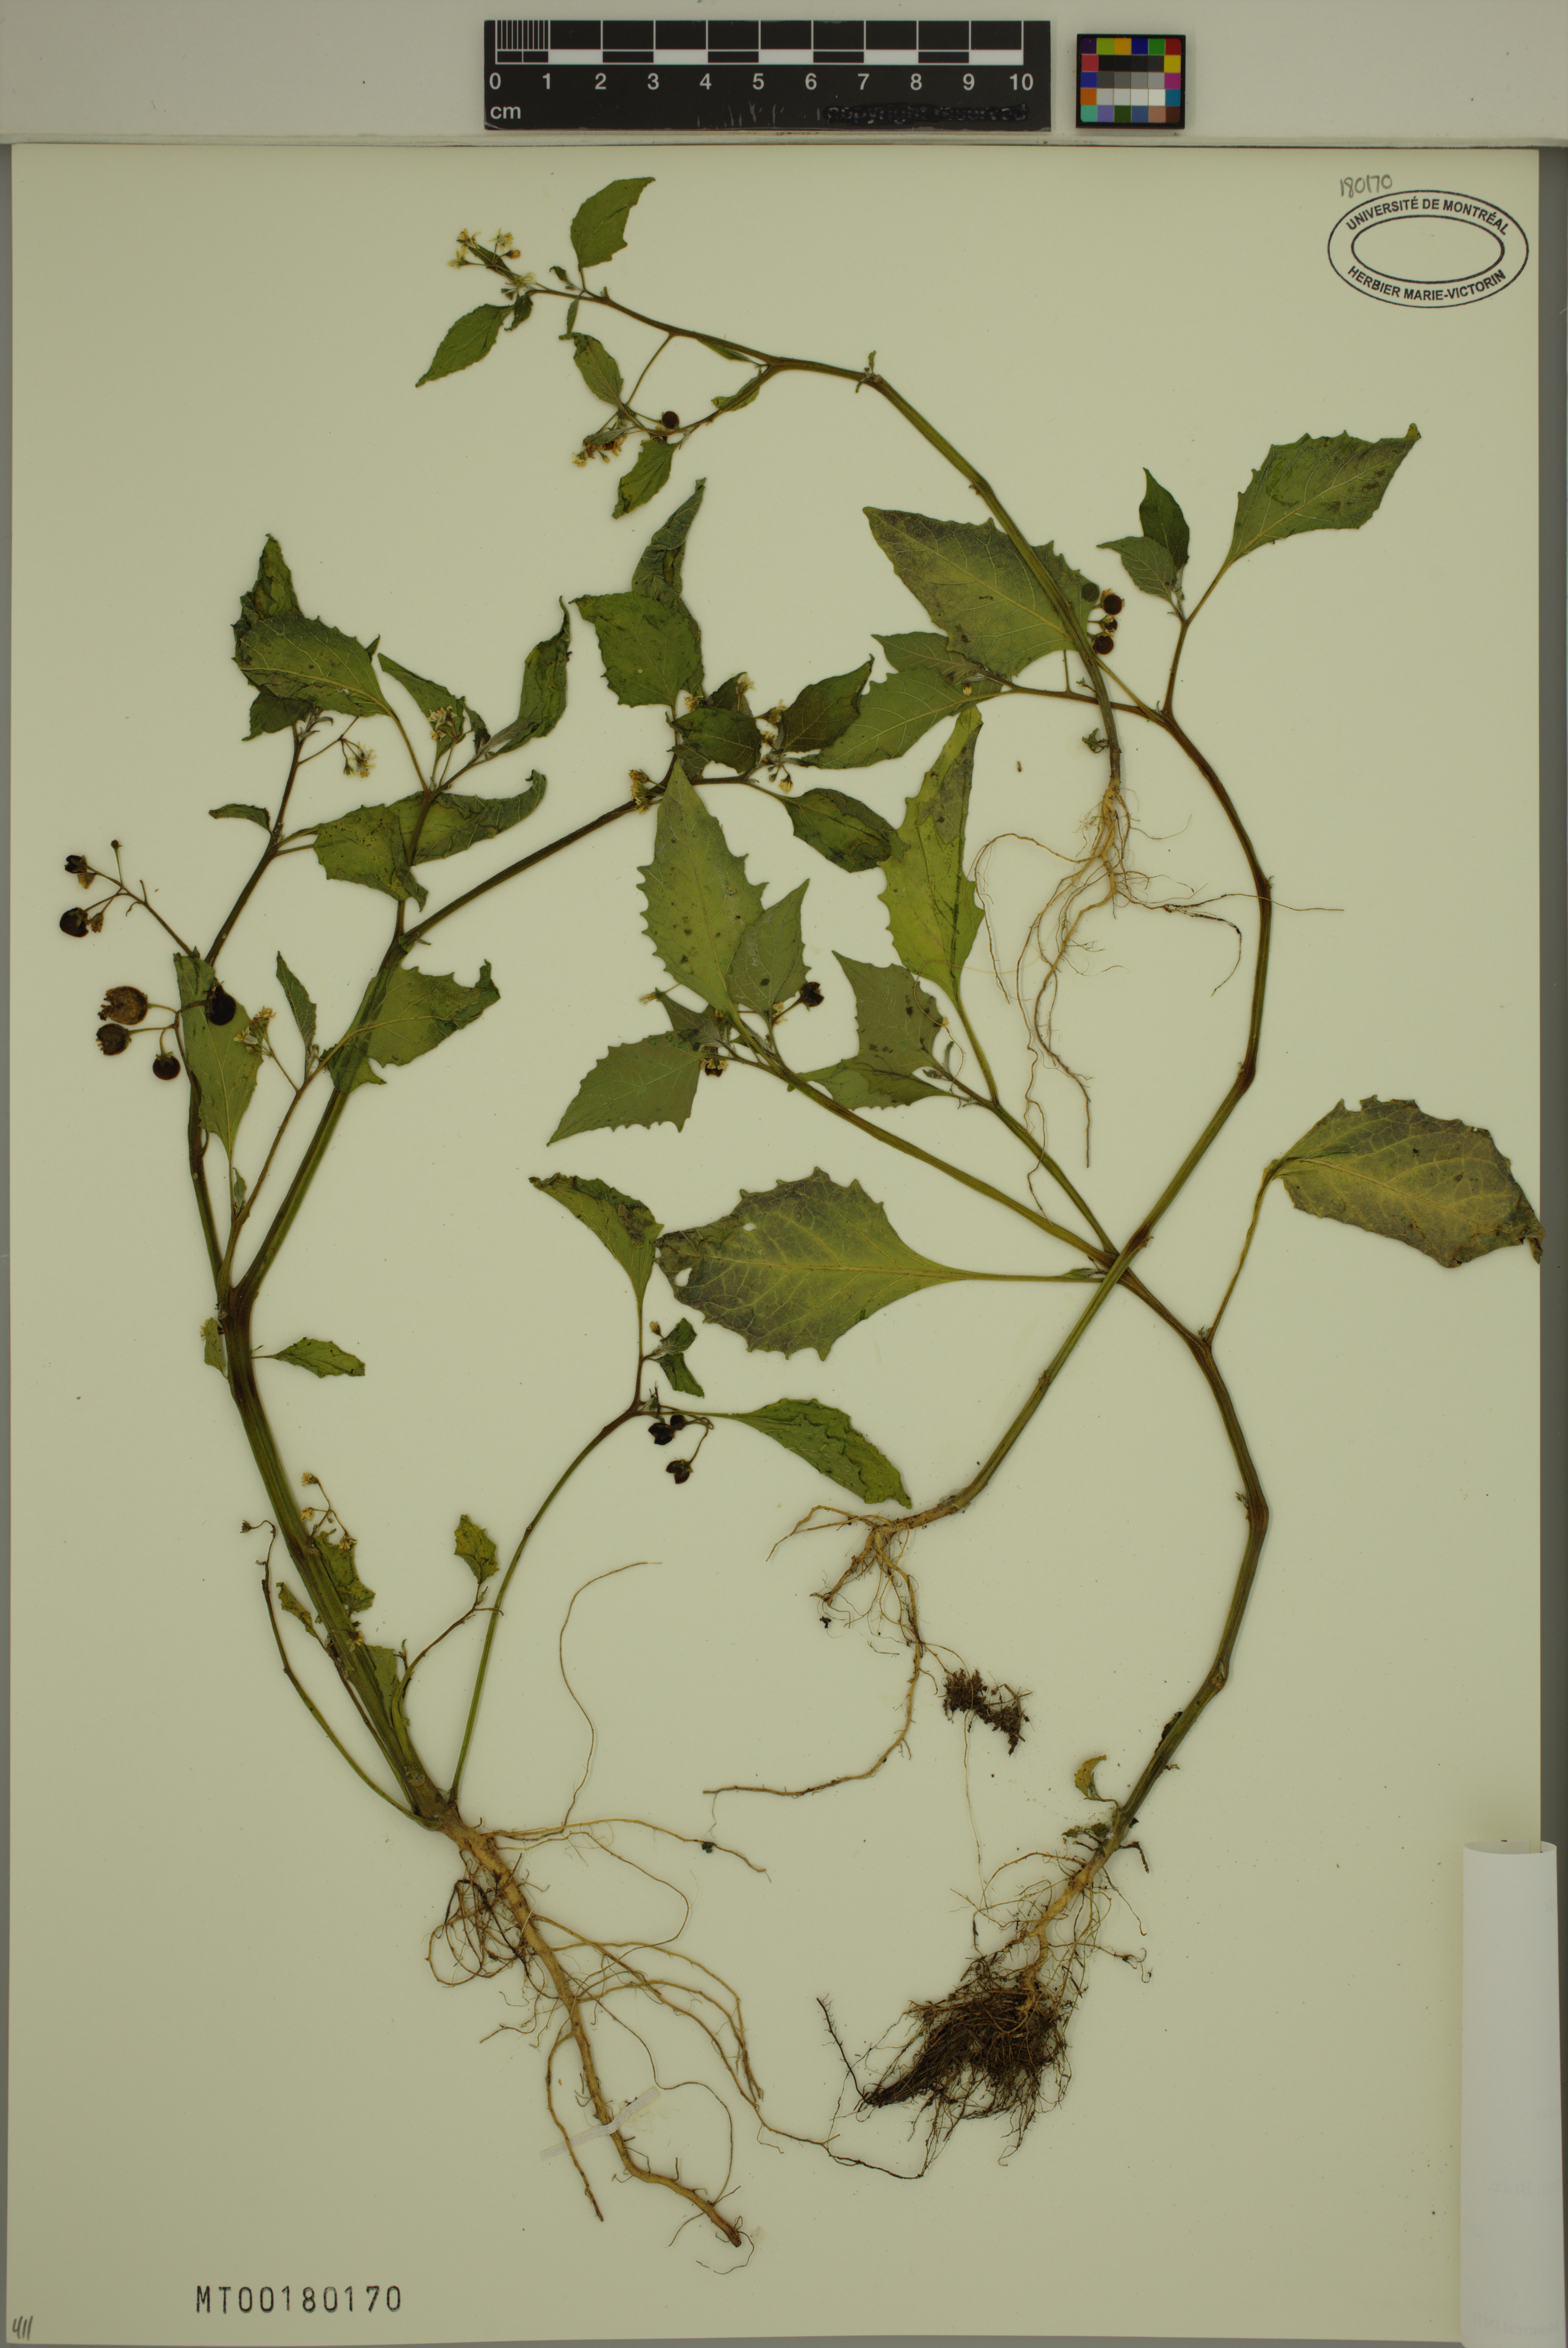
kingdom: Plantae
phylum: Tracheophyta
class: Magnoliopsida
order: Solanales
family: Solanaceae
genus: Solanum
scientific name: Solanum americanum
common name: American black nightshade
